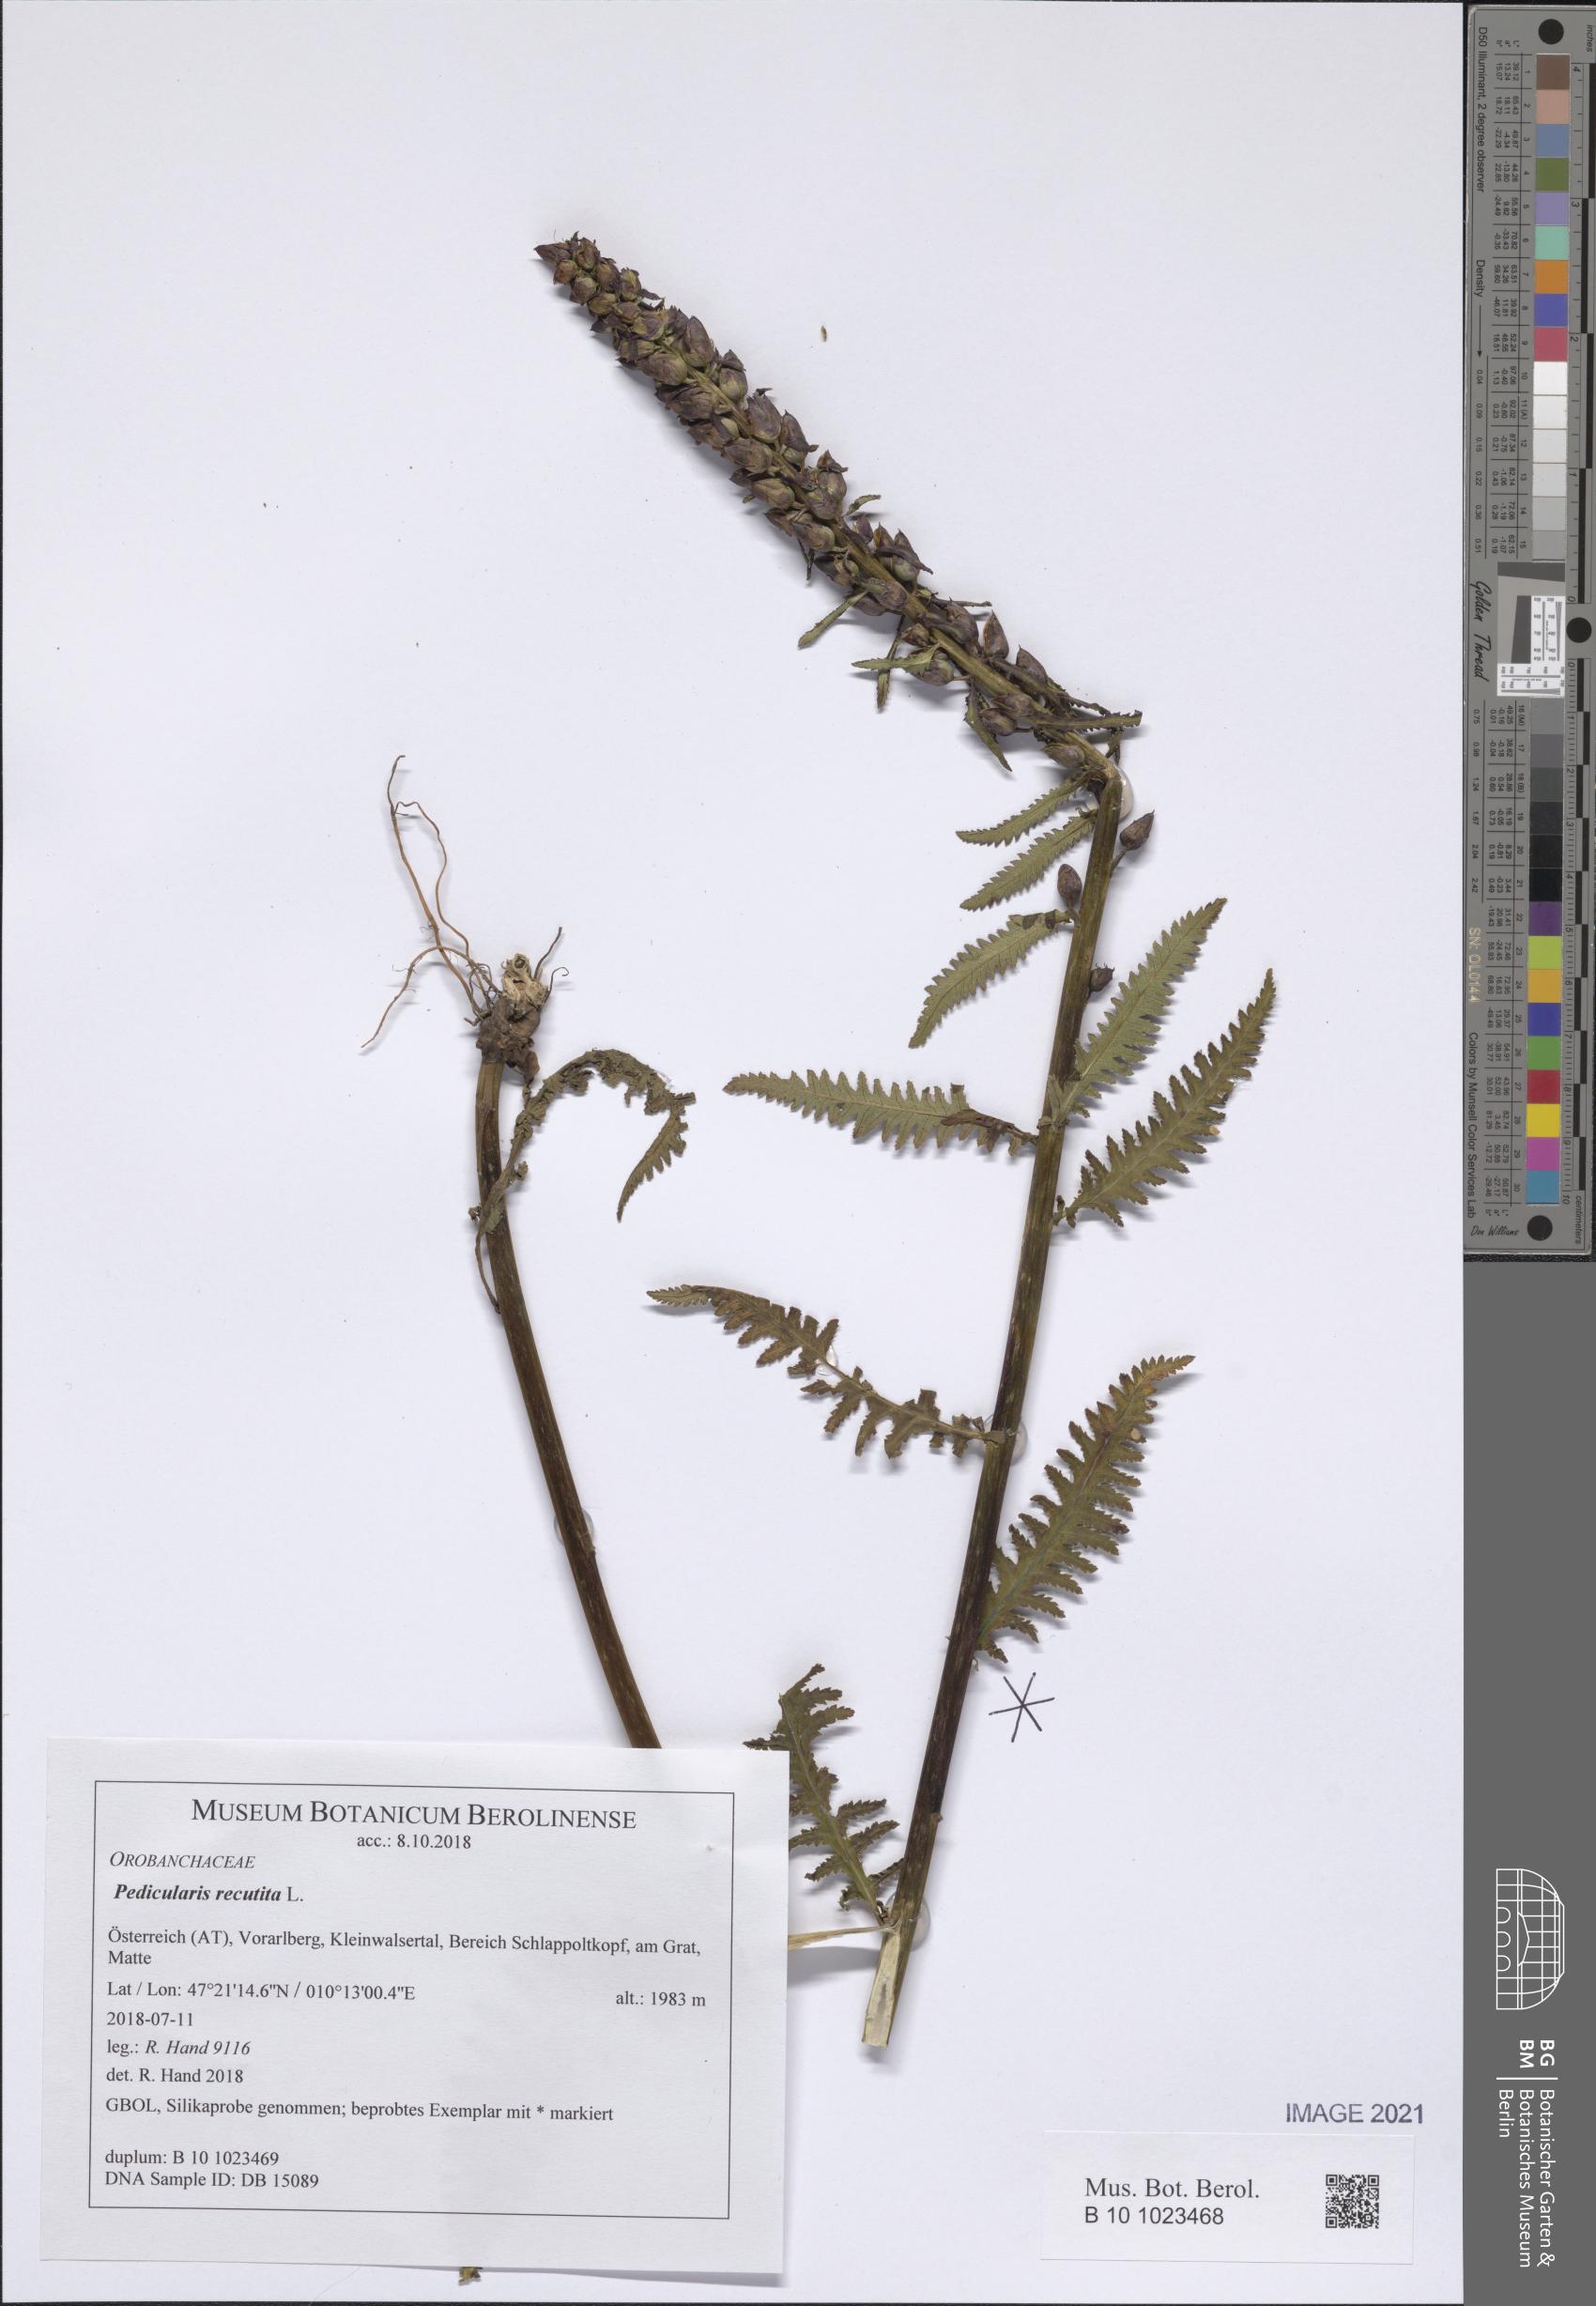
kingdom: Plantae
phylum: Tracheophyta
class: Magnoliopsida
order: Lamiales
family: Orobanchaceae
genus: Pedicularis
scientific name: Pedicularis recutita
